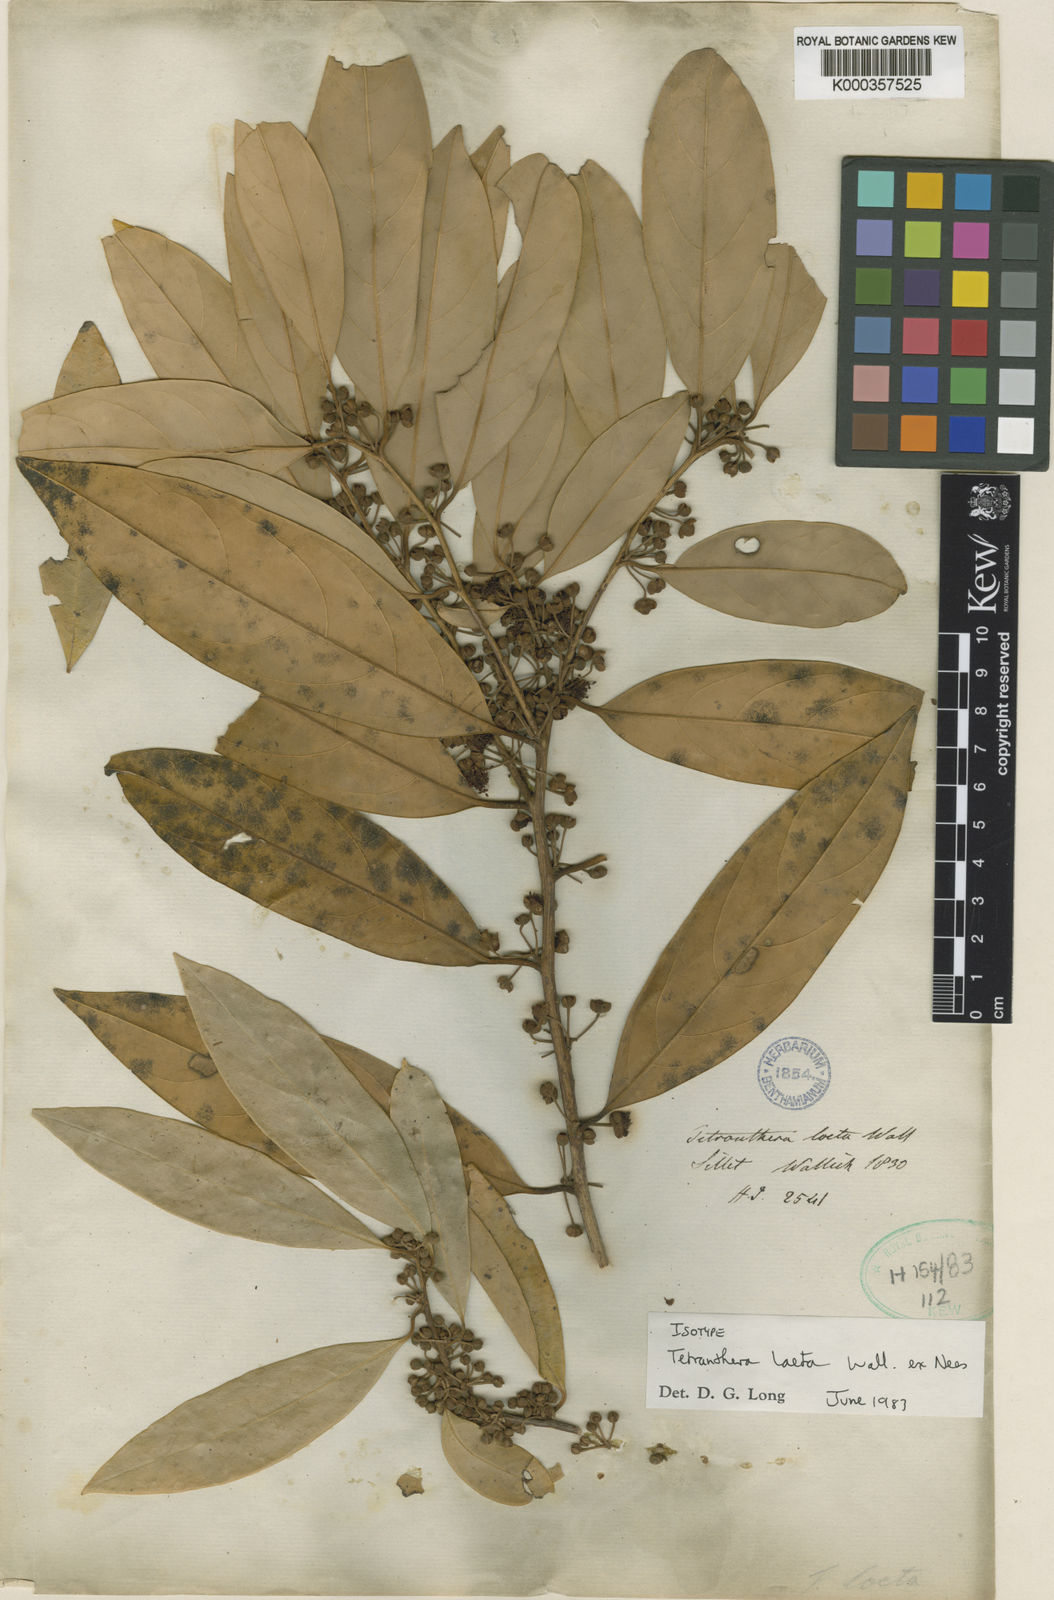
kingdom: Plantae
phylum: Tracheophyta
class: Magnoliopsida
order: Laurales
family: Lauraceae
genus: Litsea
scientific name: Litsea
